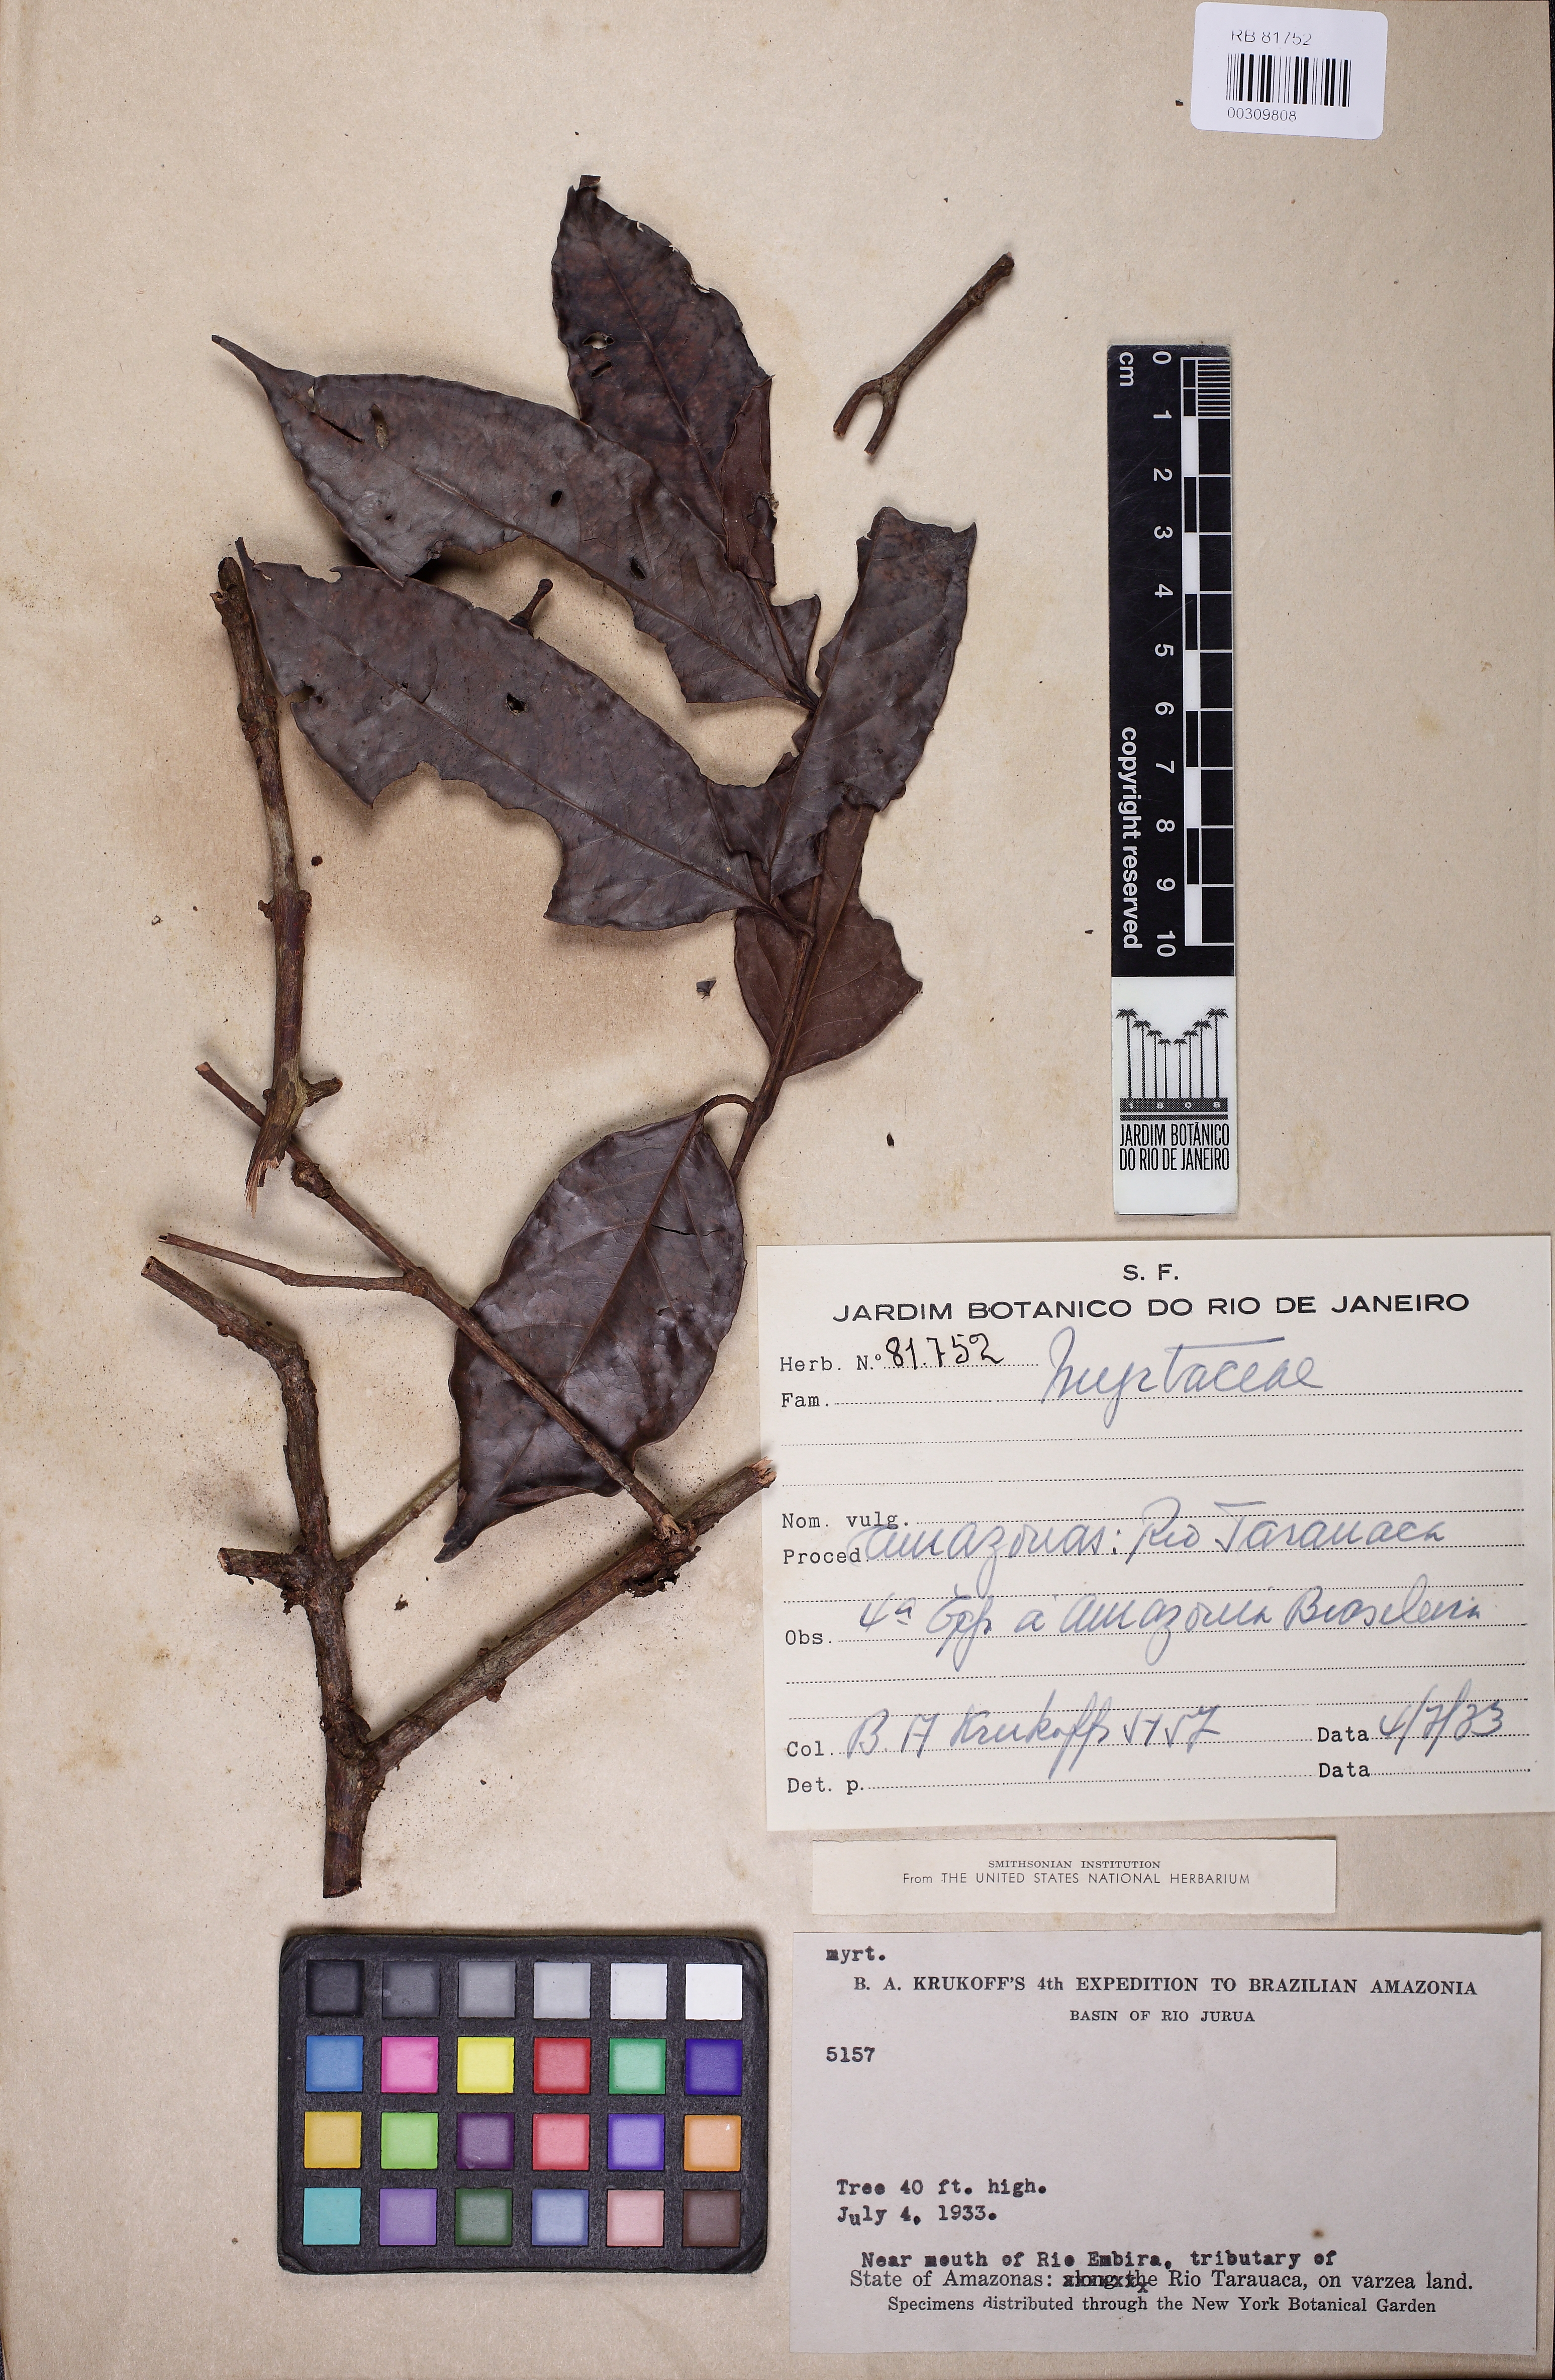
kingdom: Plantae
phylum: Tracheophyta
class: Magnoliopsida
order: Myrtales
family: Myrtaceae
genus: Eugenia
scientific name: Eugenia feijoi
